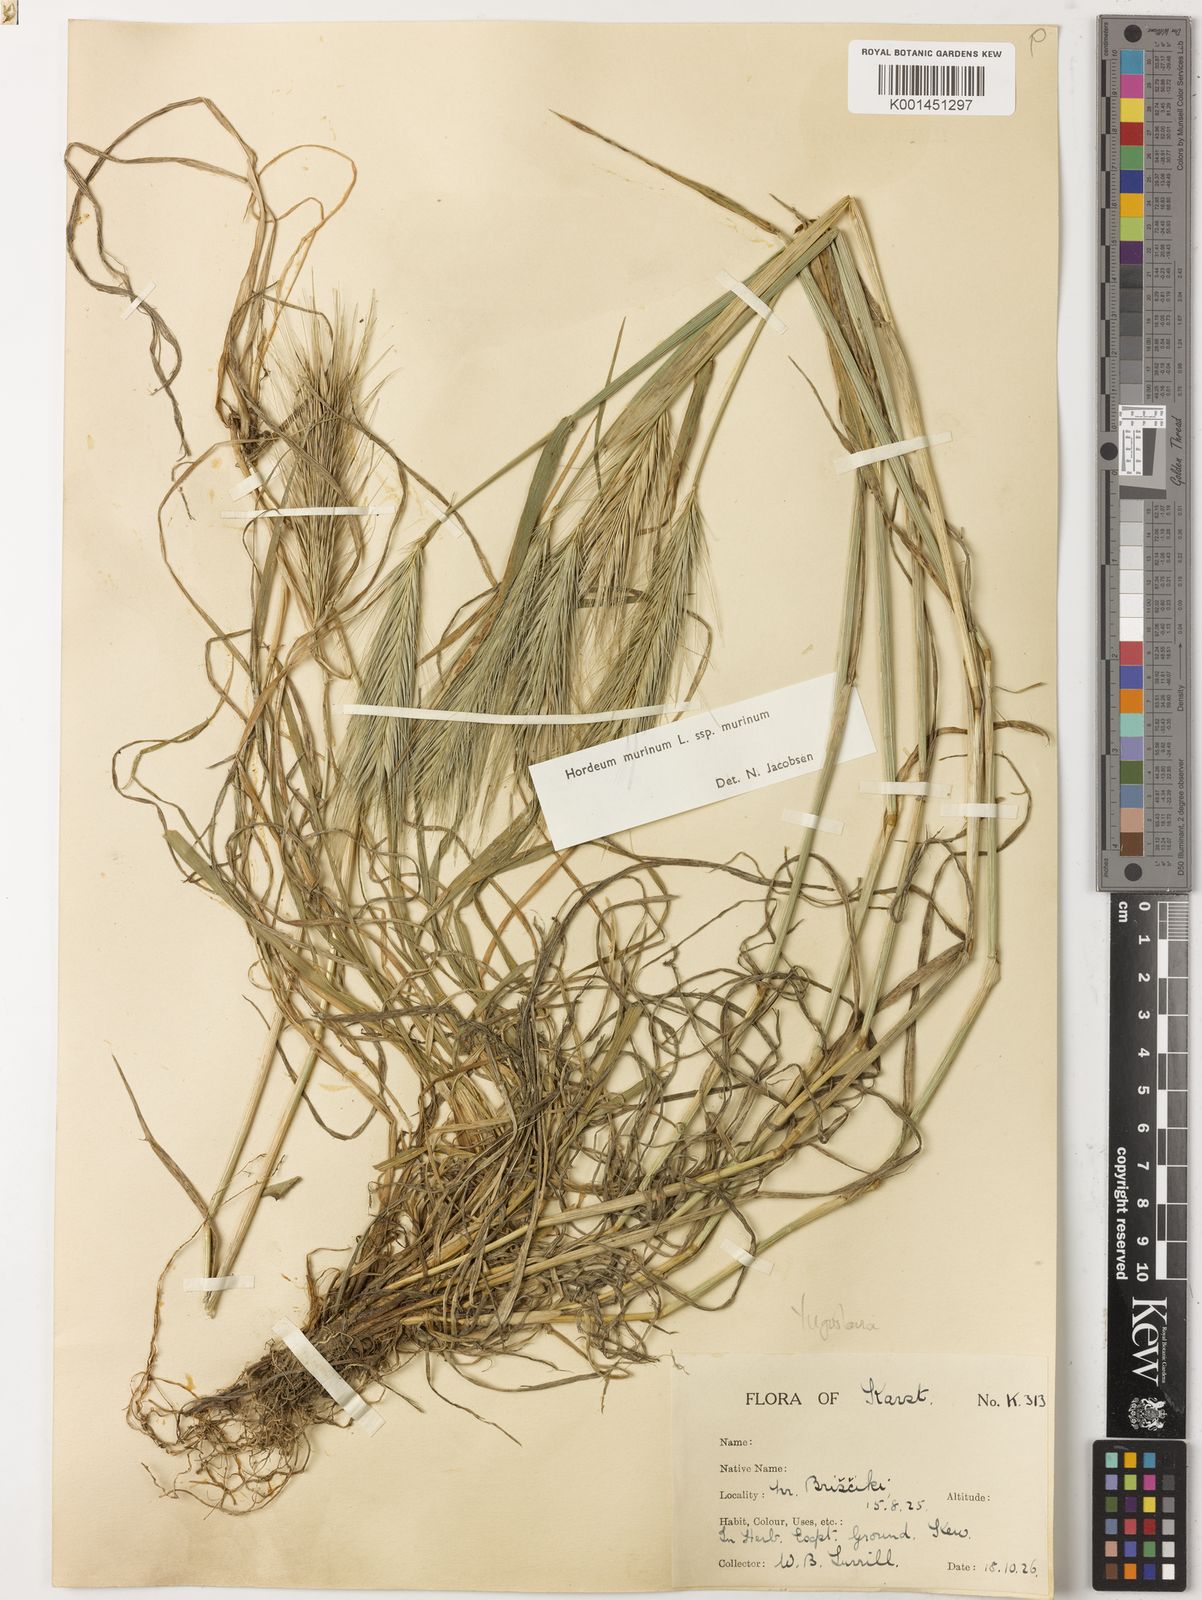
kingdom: Plantae
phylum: Tracheophyta
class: Liliopsida
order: Poales
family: Poaceae
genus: Hordeum
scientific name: Hordeum murinum
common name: Wall barley
